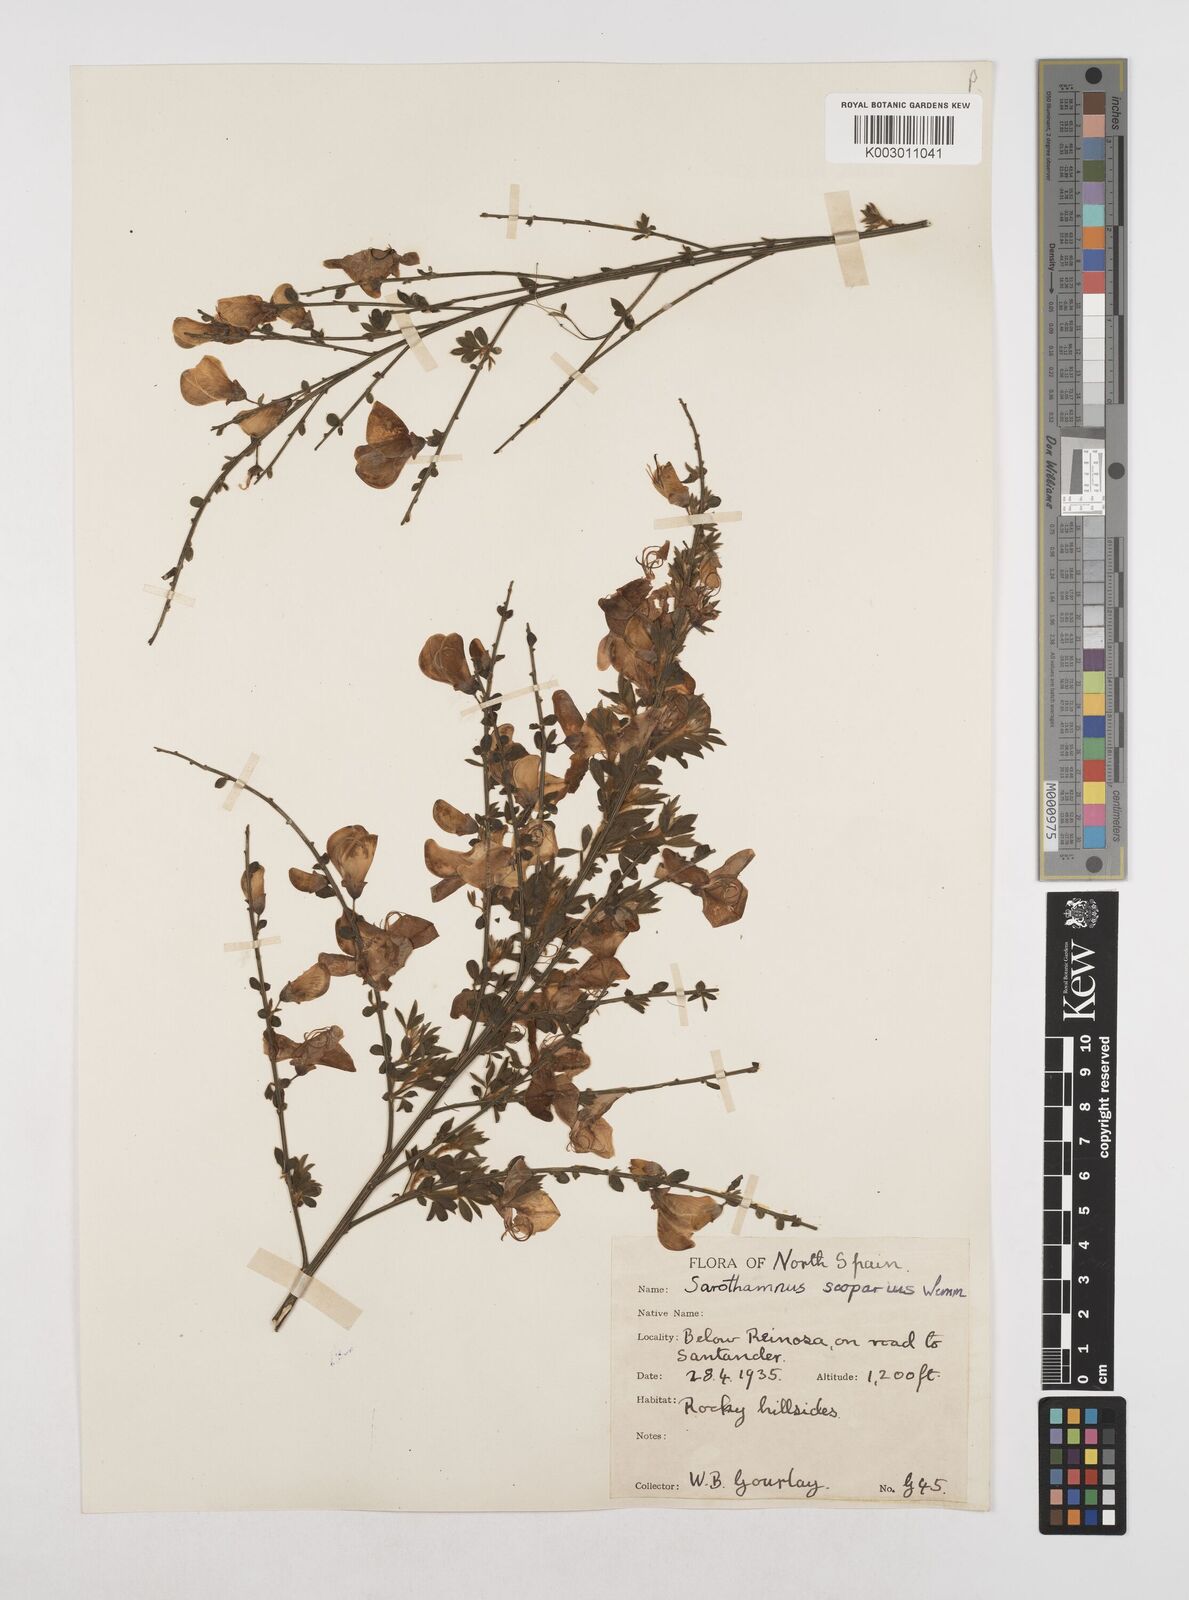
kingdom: Plantae
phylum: Tracheophyta
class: Magnoliopsida
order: Fabales
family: Fabaceae
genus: Cytisus
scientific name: Cytisus scoparius
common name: Scotch broom
